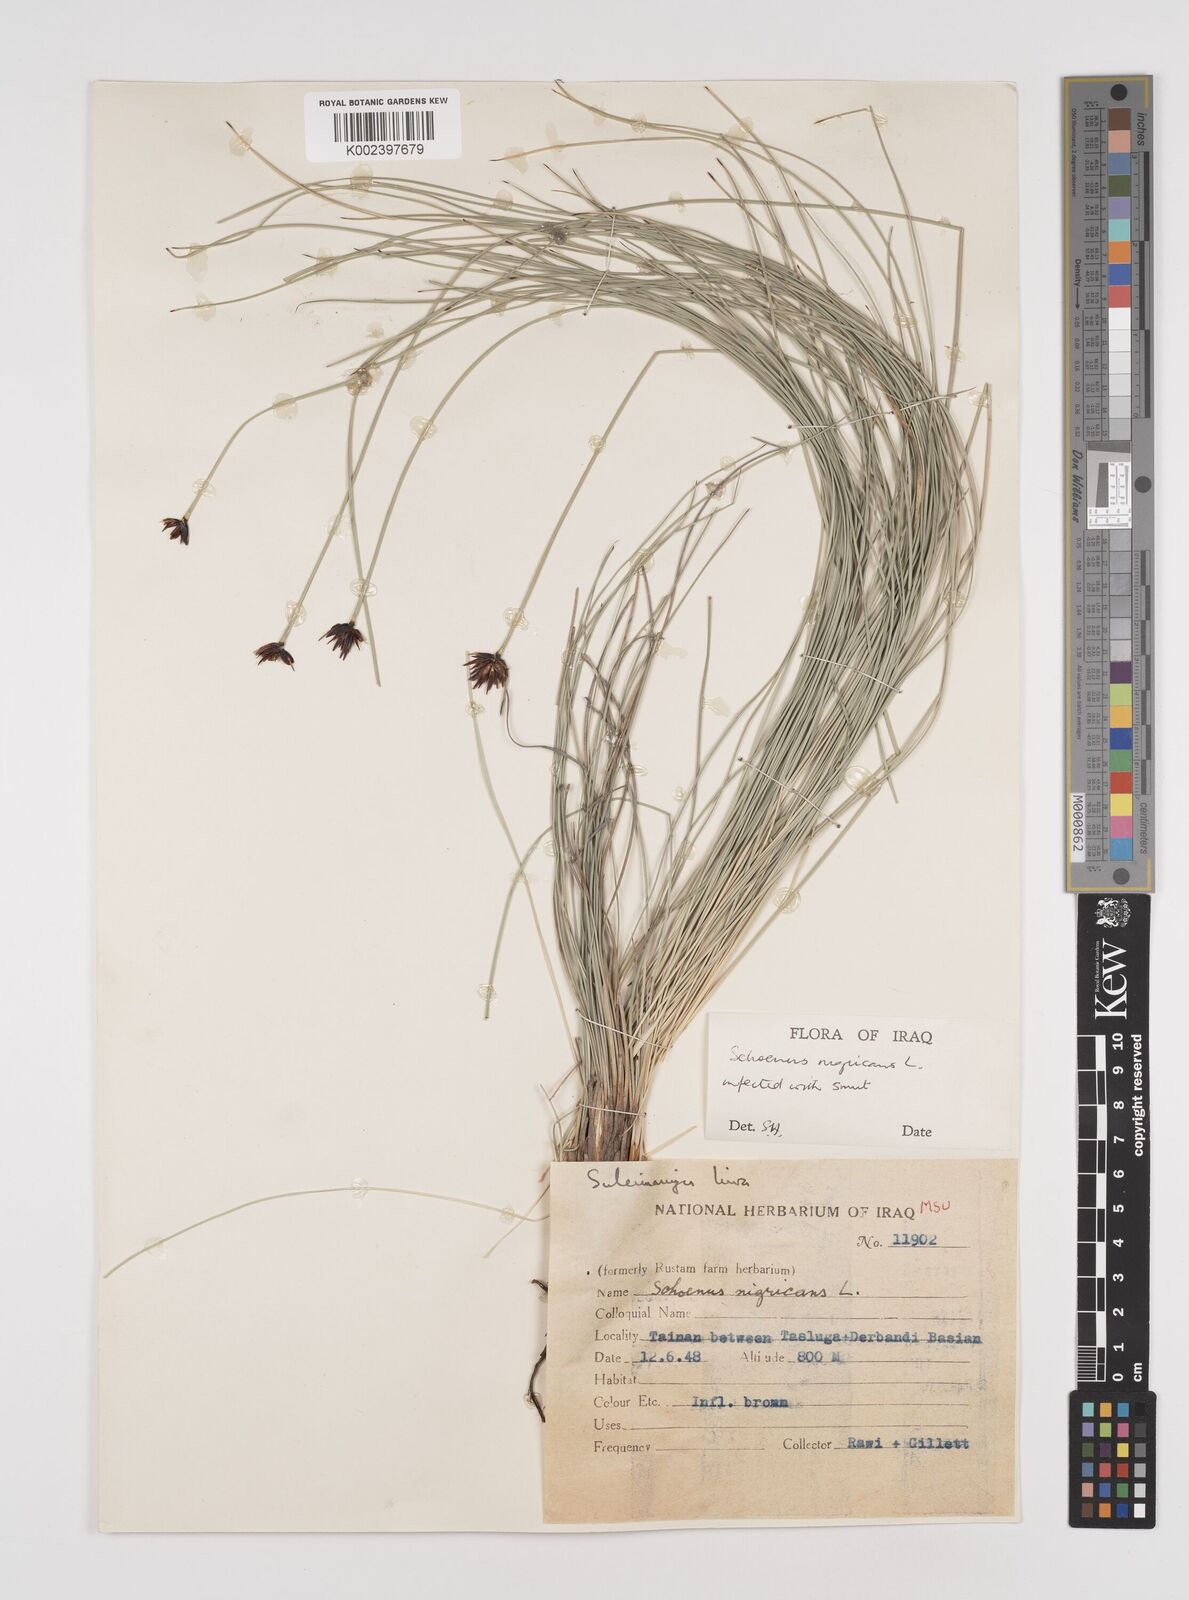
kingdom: Plantae
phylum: Tracheophyta
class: Liliopsida
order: Poales
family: Cyperaceae
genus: Schoenus
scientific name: Schoenus nigricans
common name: Black bog-rush
